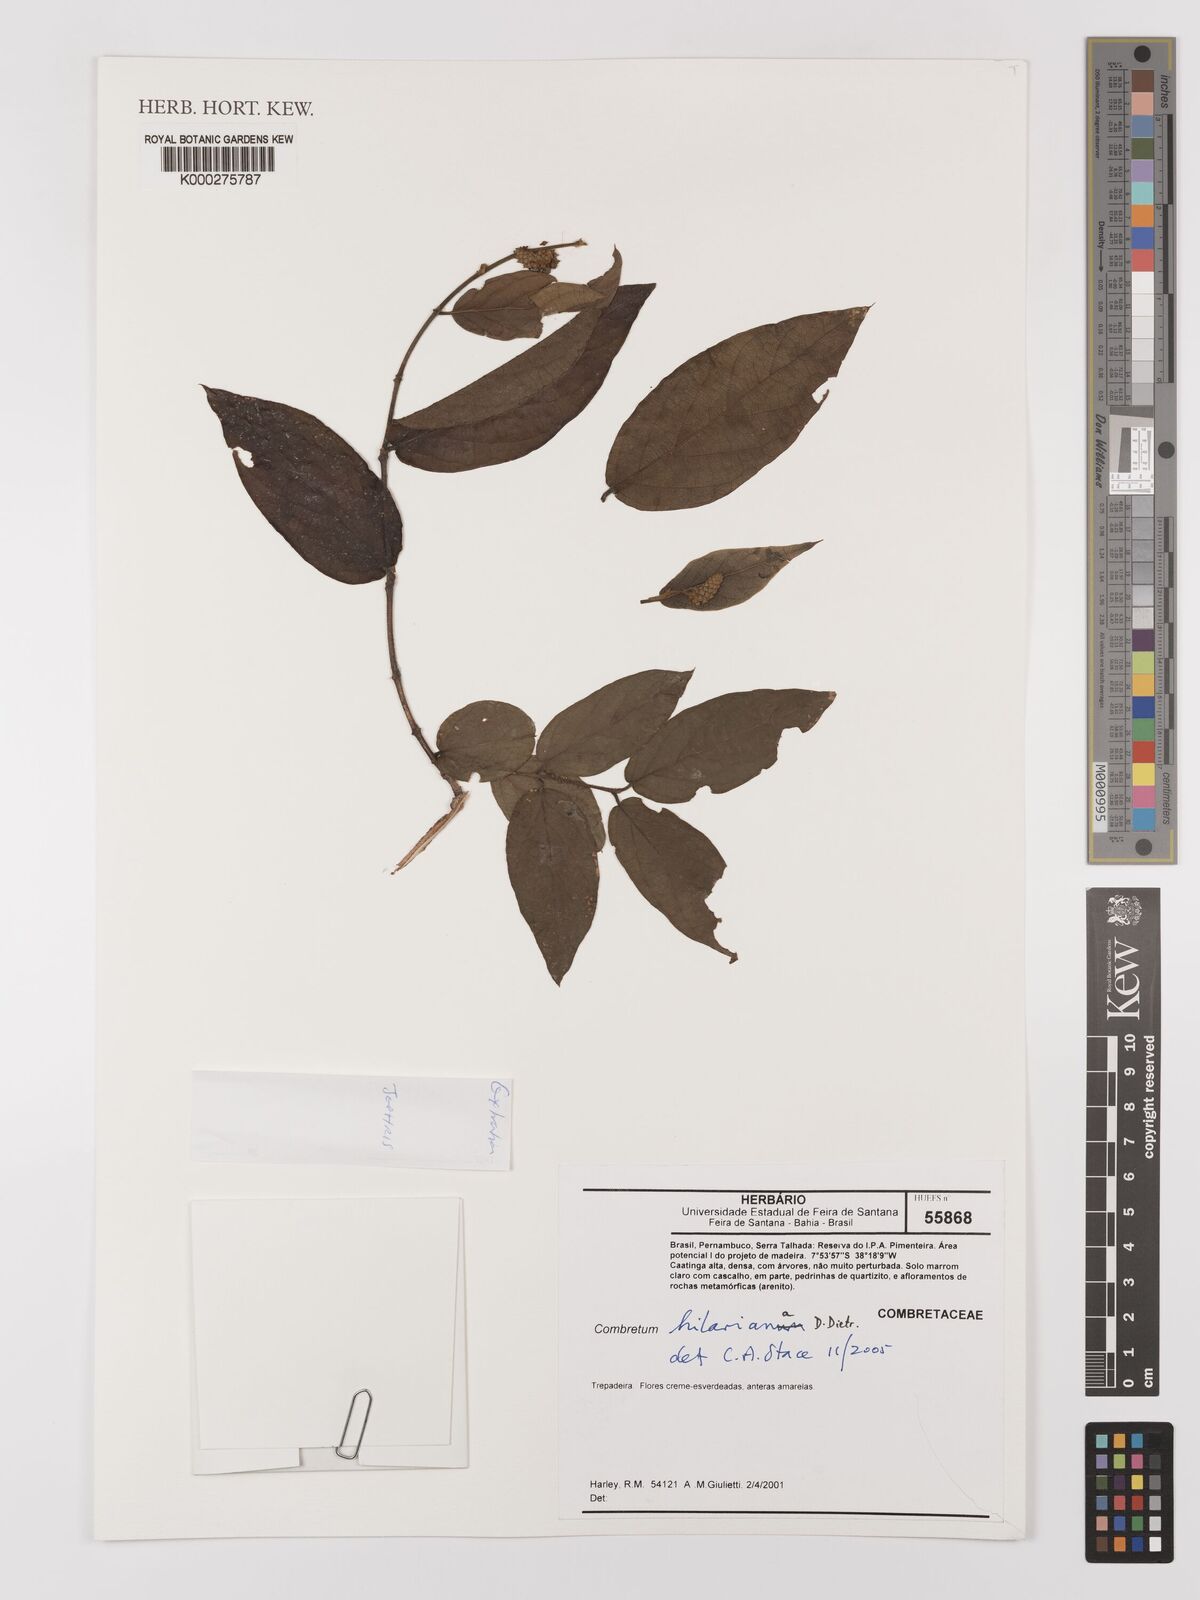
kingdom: Plantae
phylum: Tracheophyta
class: Magnoliopsida
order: Myrtales
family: Combretaceae
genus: Combretum
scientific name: Combretum hilarianum
